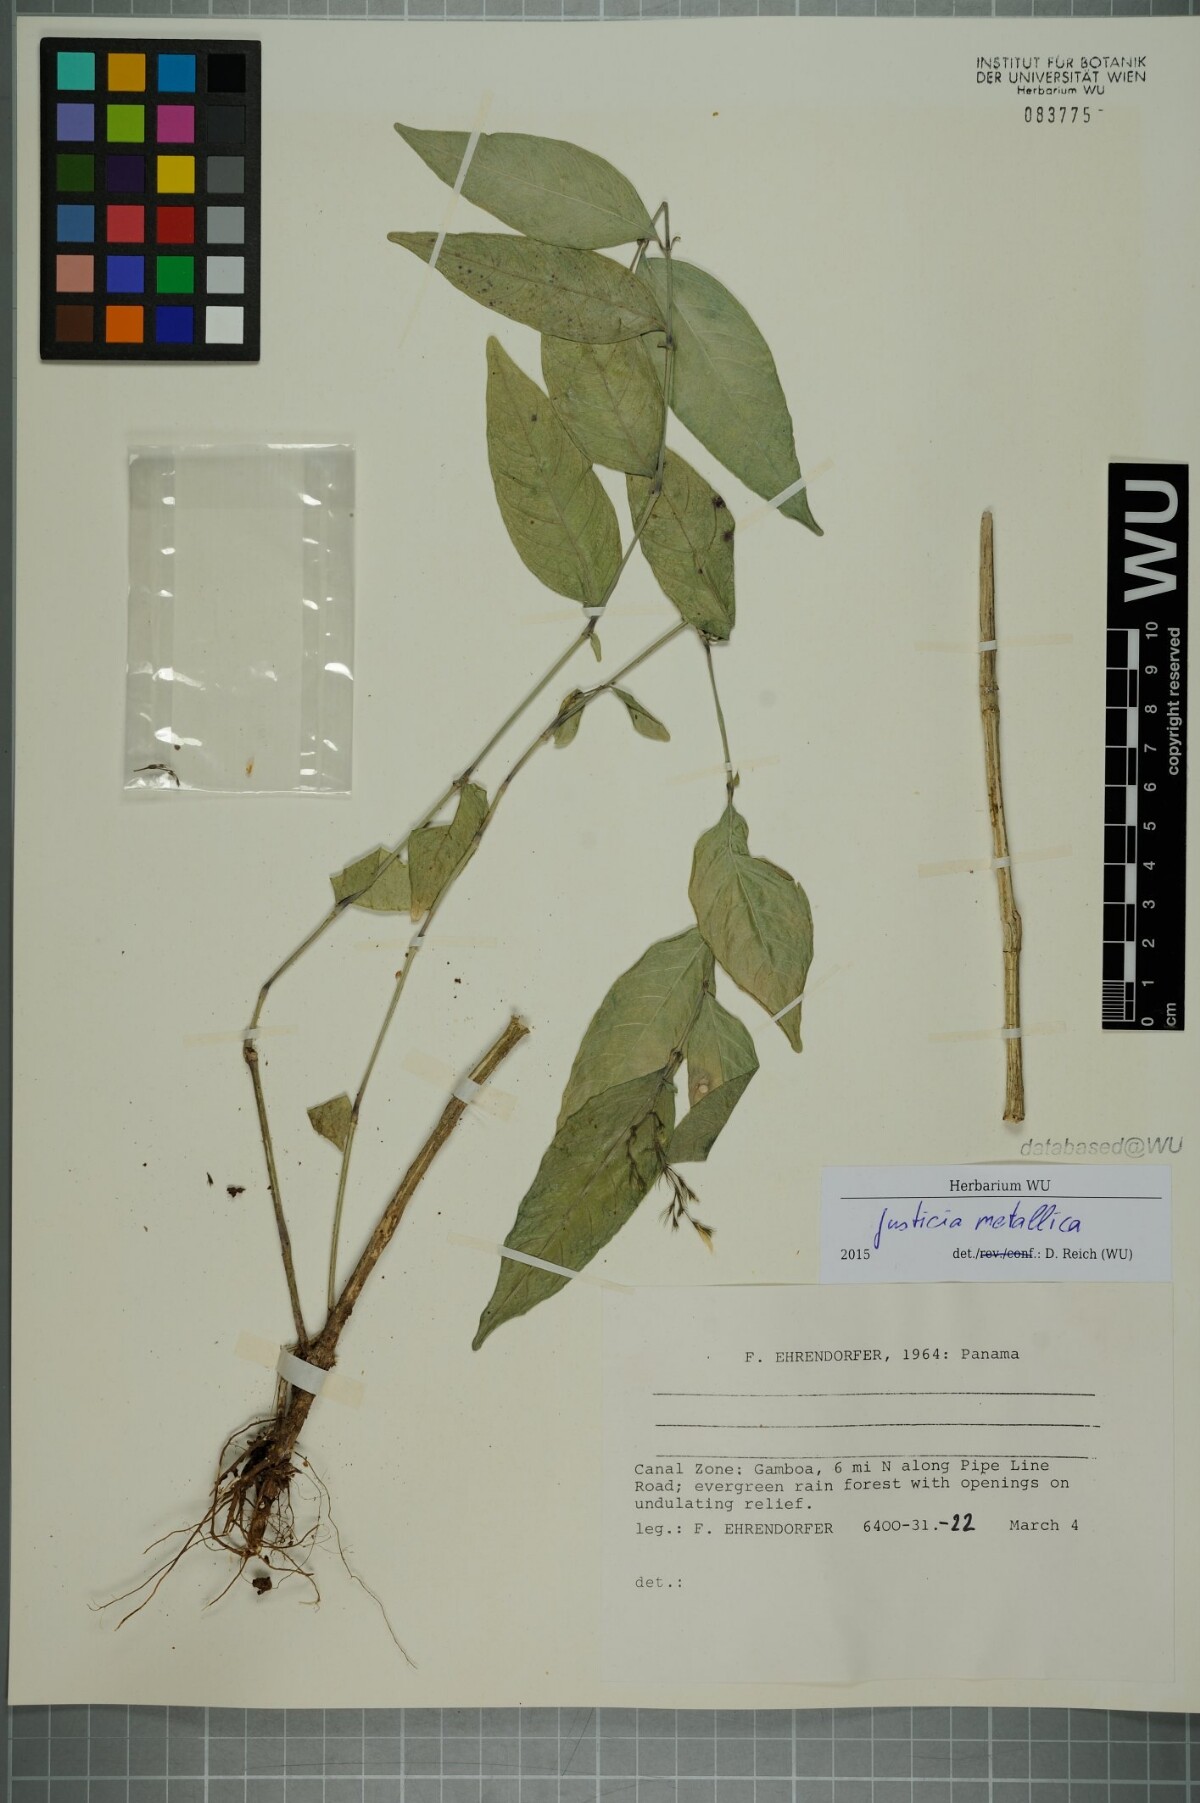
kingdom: Plantae
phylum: Tracheophyta
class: Magnoliopsida
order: Lamiales
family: Acanthaceae
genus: Justicia
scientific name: Justicia metallica
